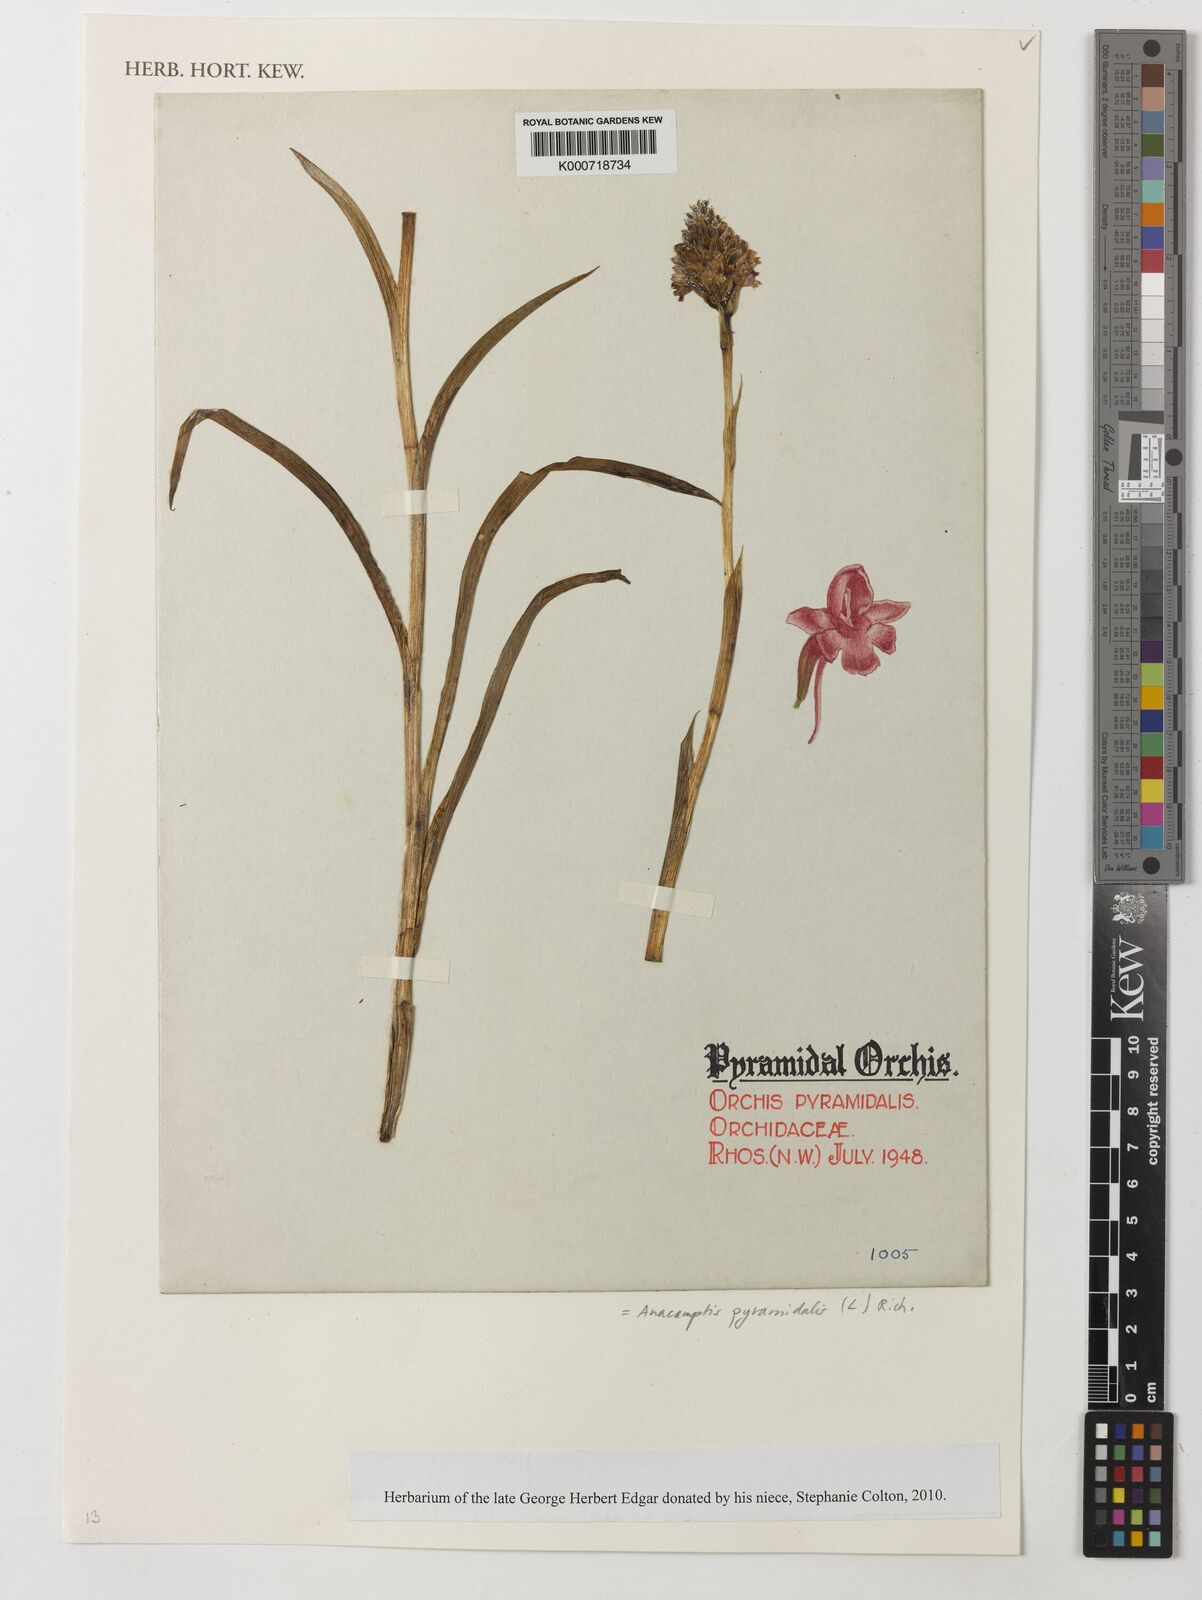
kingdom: Plantae
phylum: Tracheophyta
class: Liliopsida
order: Asparagales
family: Orchidaceae
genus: Anacamptis
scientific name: Anacamptis pyramidalis
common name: Pyramidal orchid
